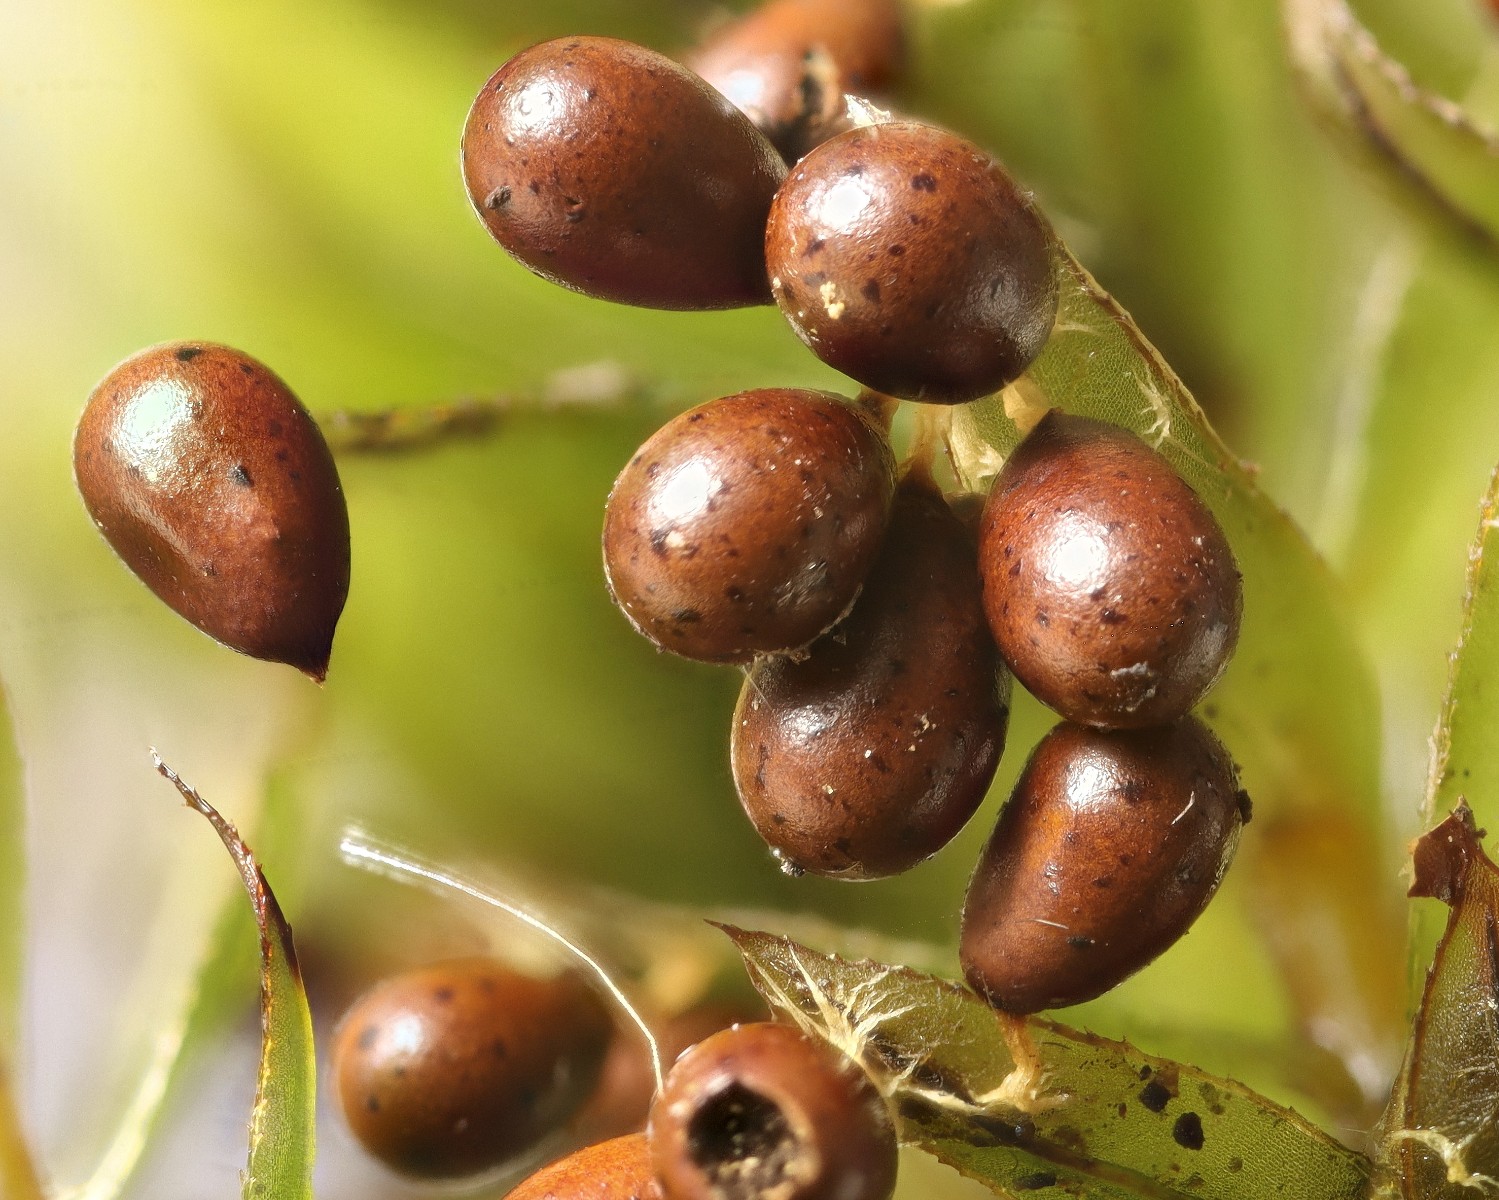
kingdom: Protozoa
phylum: Mycetozoa
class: Myxomycetes
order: Physarales
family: Physaraceae
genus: Leocarpus
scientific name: Leocarpus fragilis
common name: poleret glatfrø
